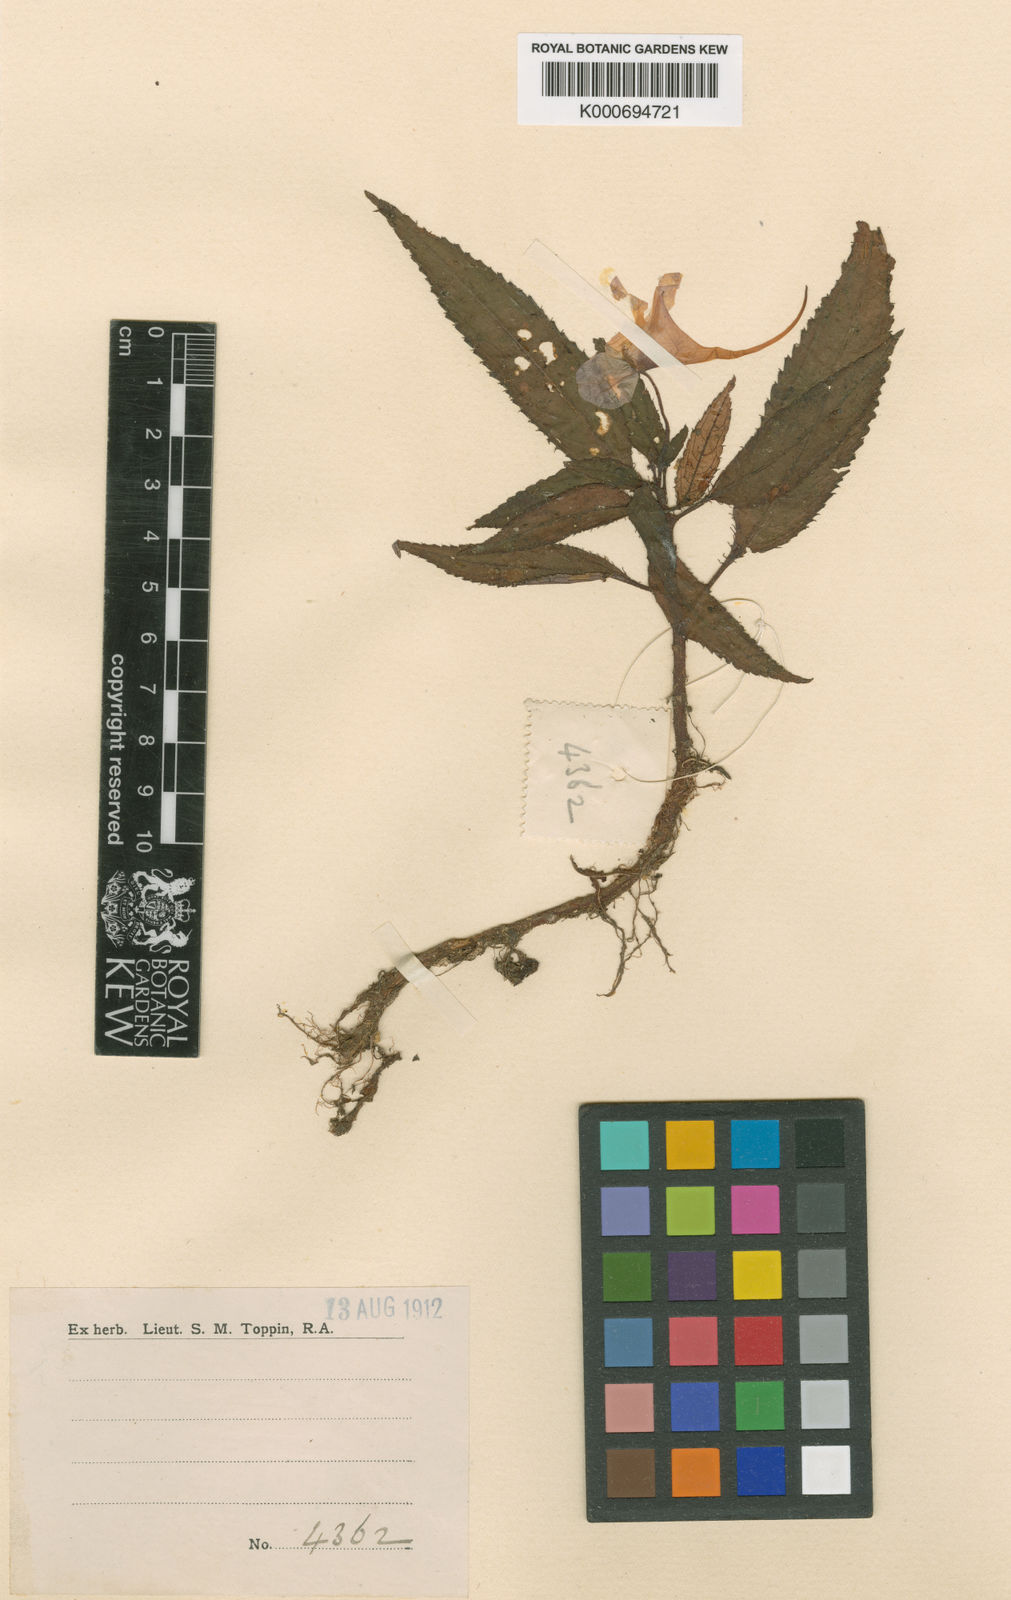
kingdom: Plantae
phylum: Tracheophyta
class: Magnoliopsida
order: Ericales
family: Balsaminaceae
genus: Impatiens
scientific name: Impatiens erubescens
